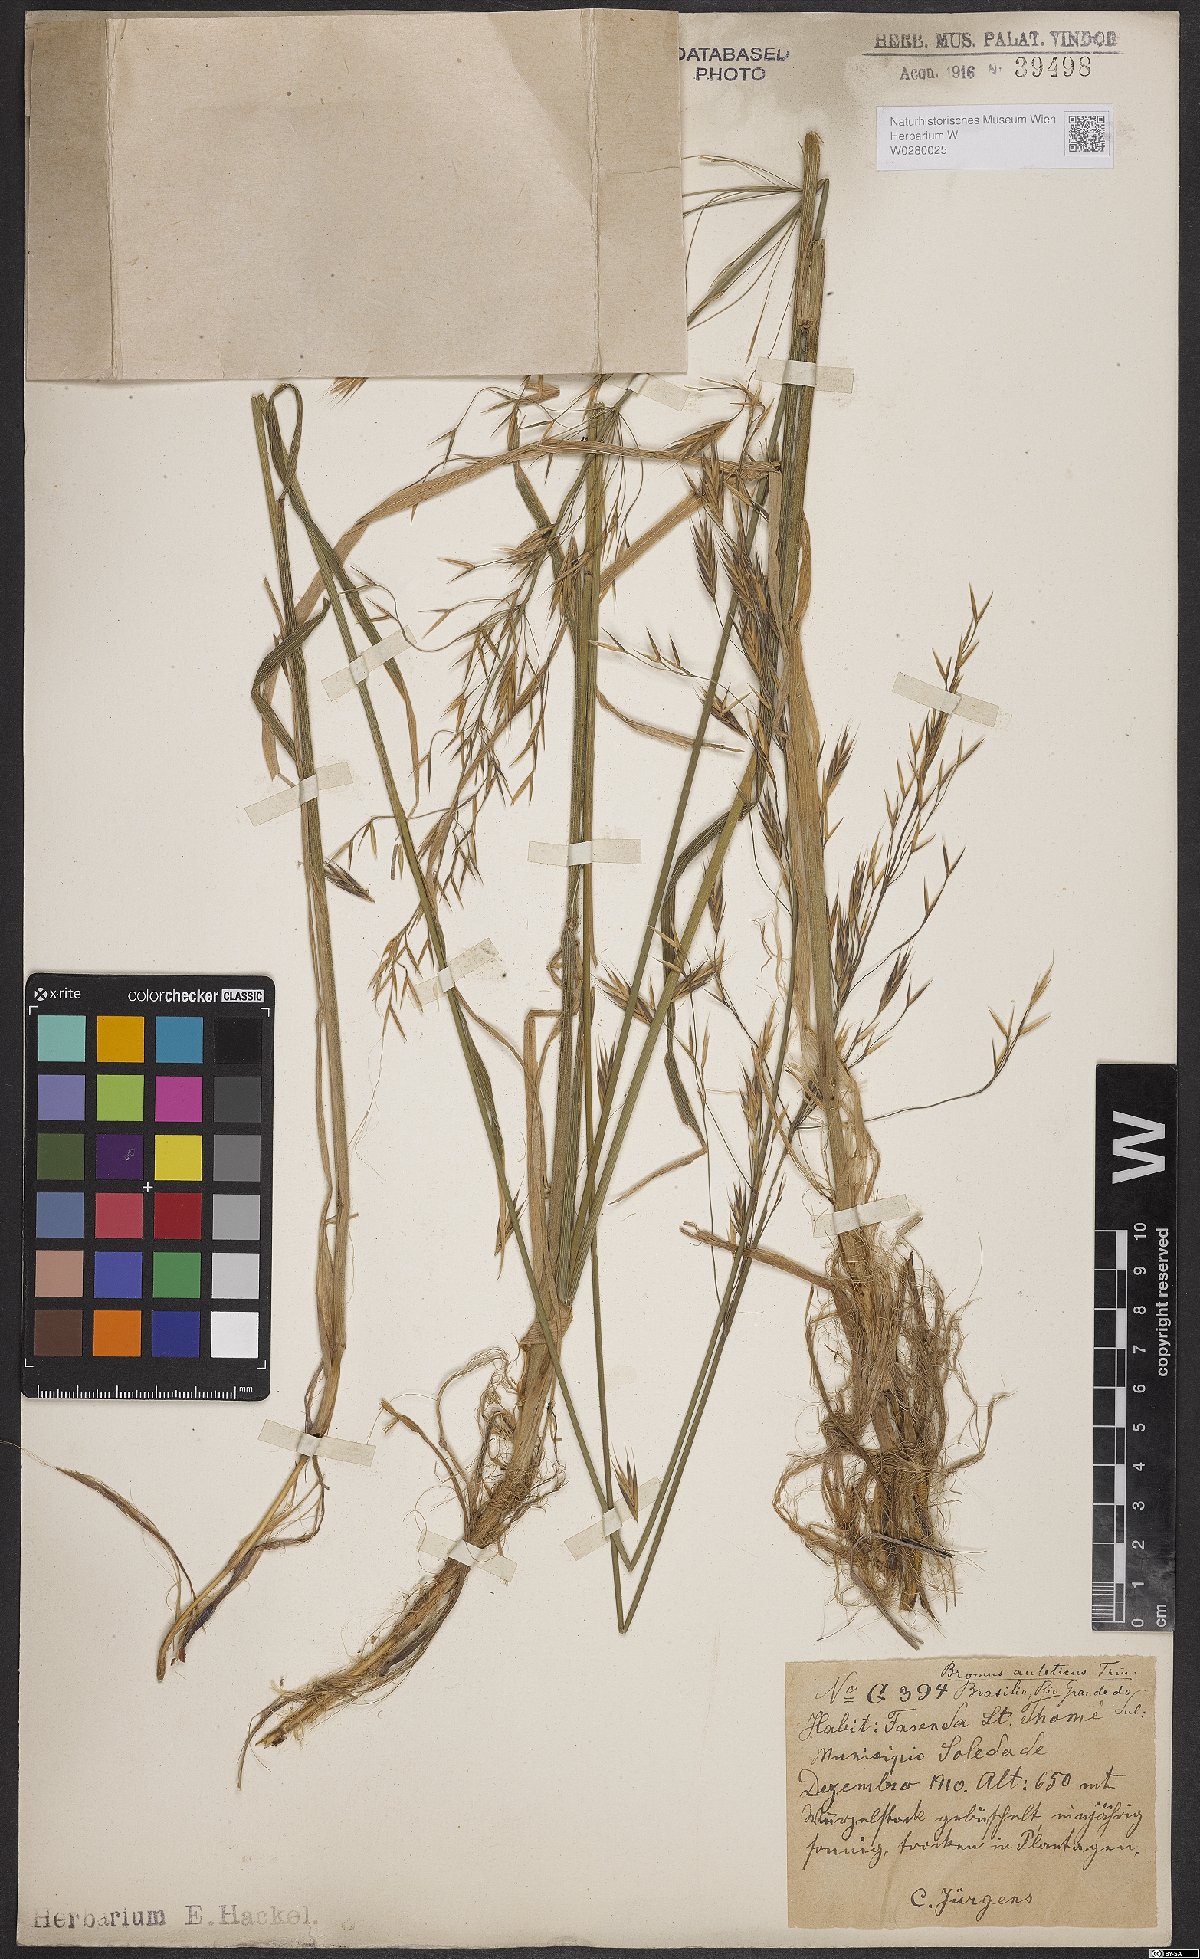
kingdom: Plantae
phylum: Tracheophyta
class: Liliopsida
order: Poales
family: Poaceae
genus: Bromus
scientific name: Bromus auleticus
